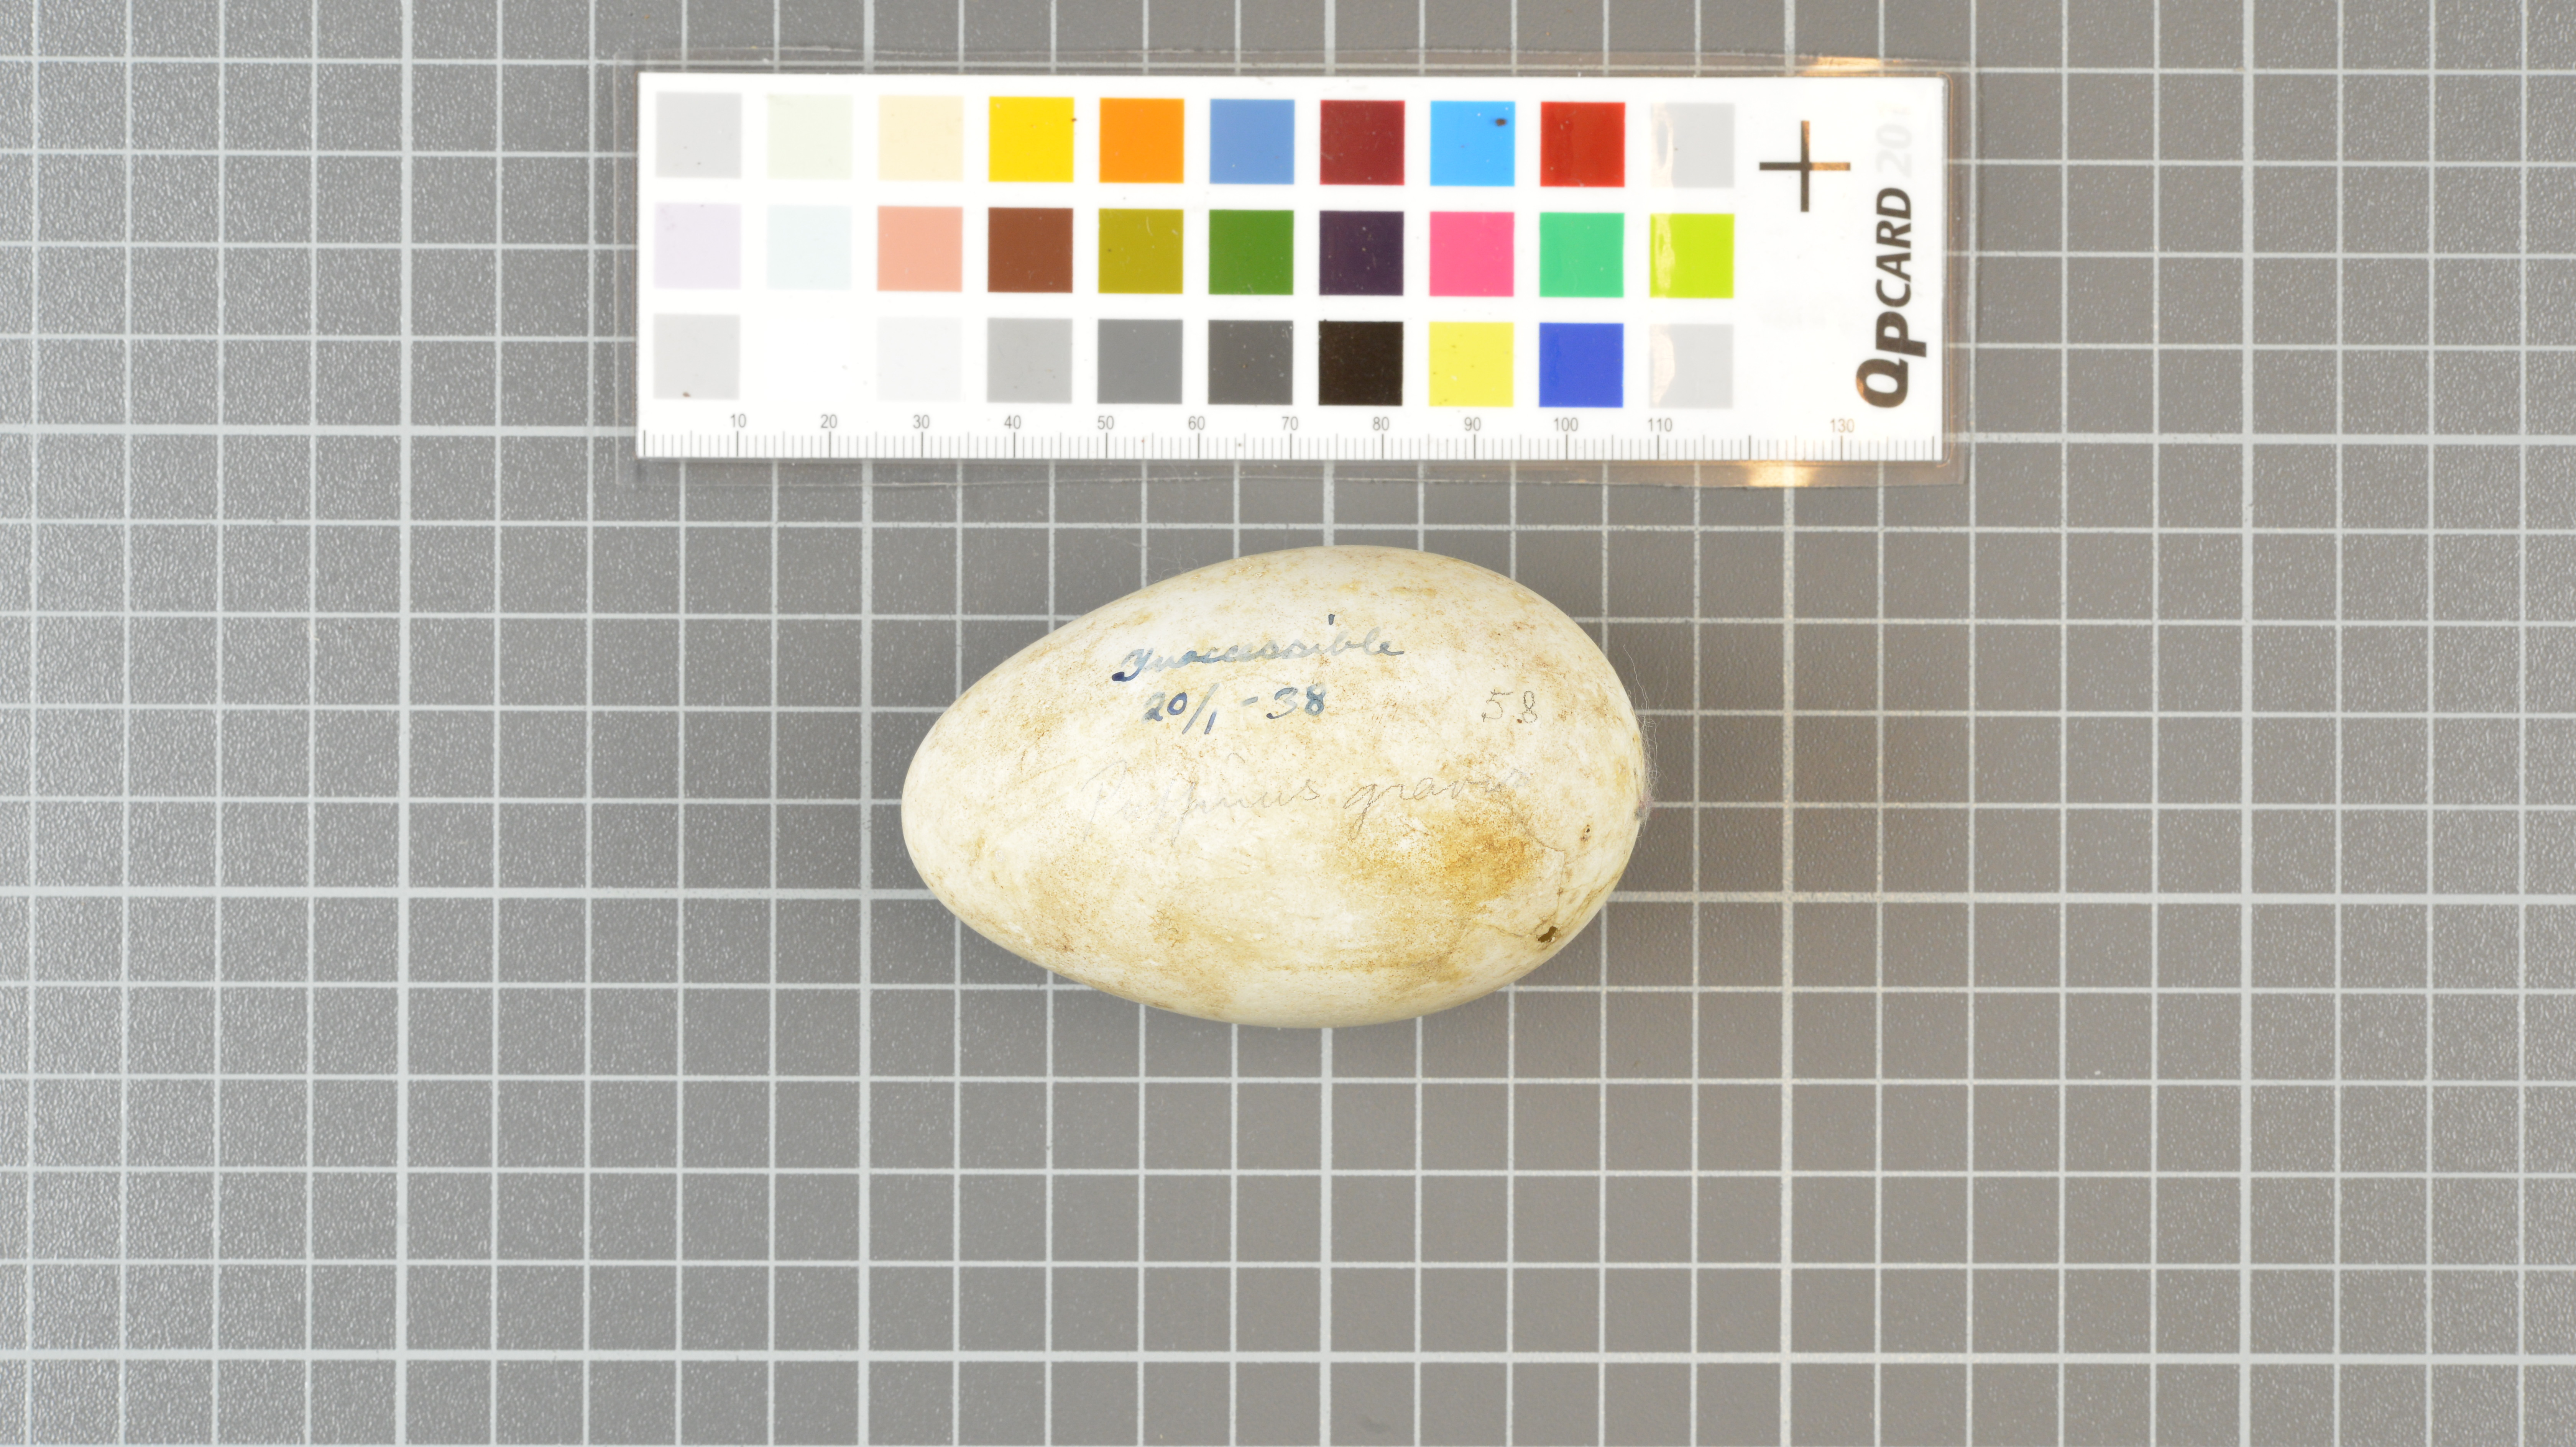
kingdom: Animalia
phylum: Chordata
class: Aves
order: Procellariiformes
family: Procellariidae
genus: Puffinus
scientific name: Puffinus gravis
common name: Great shearwater
